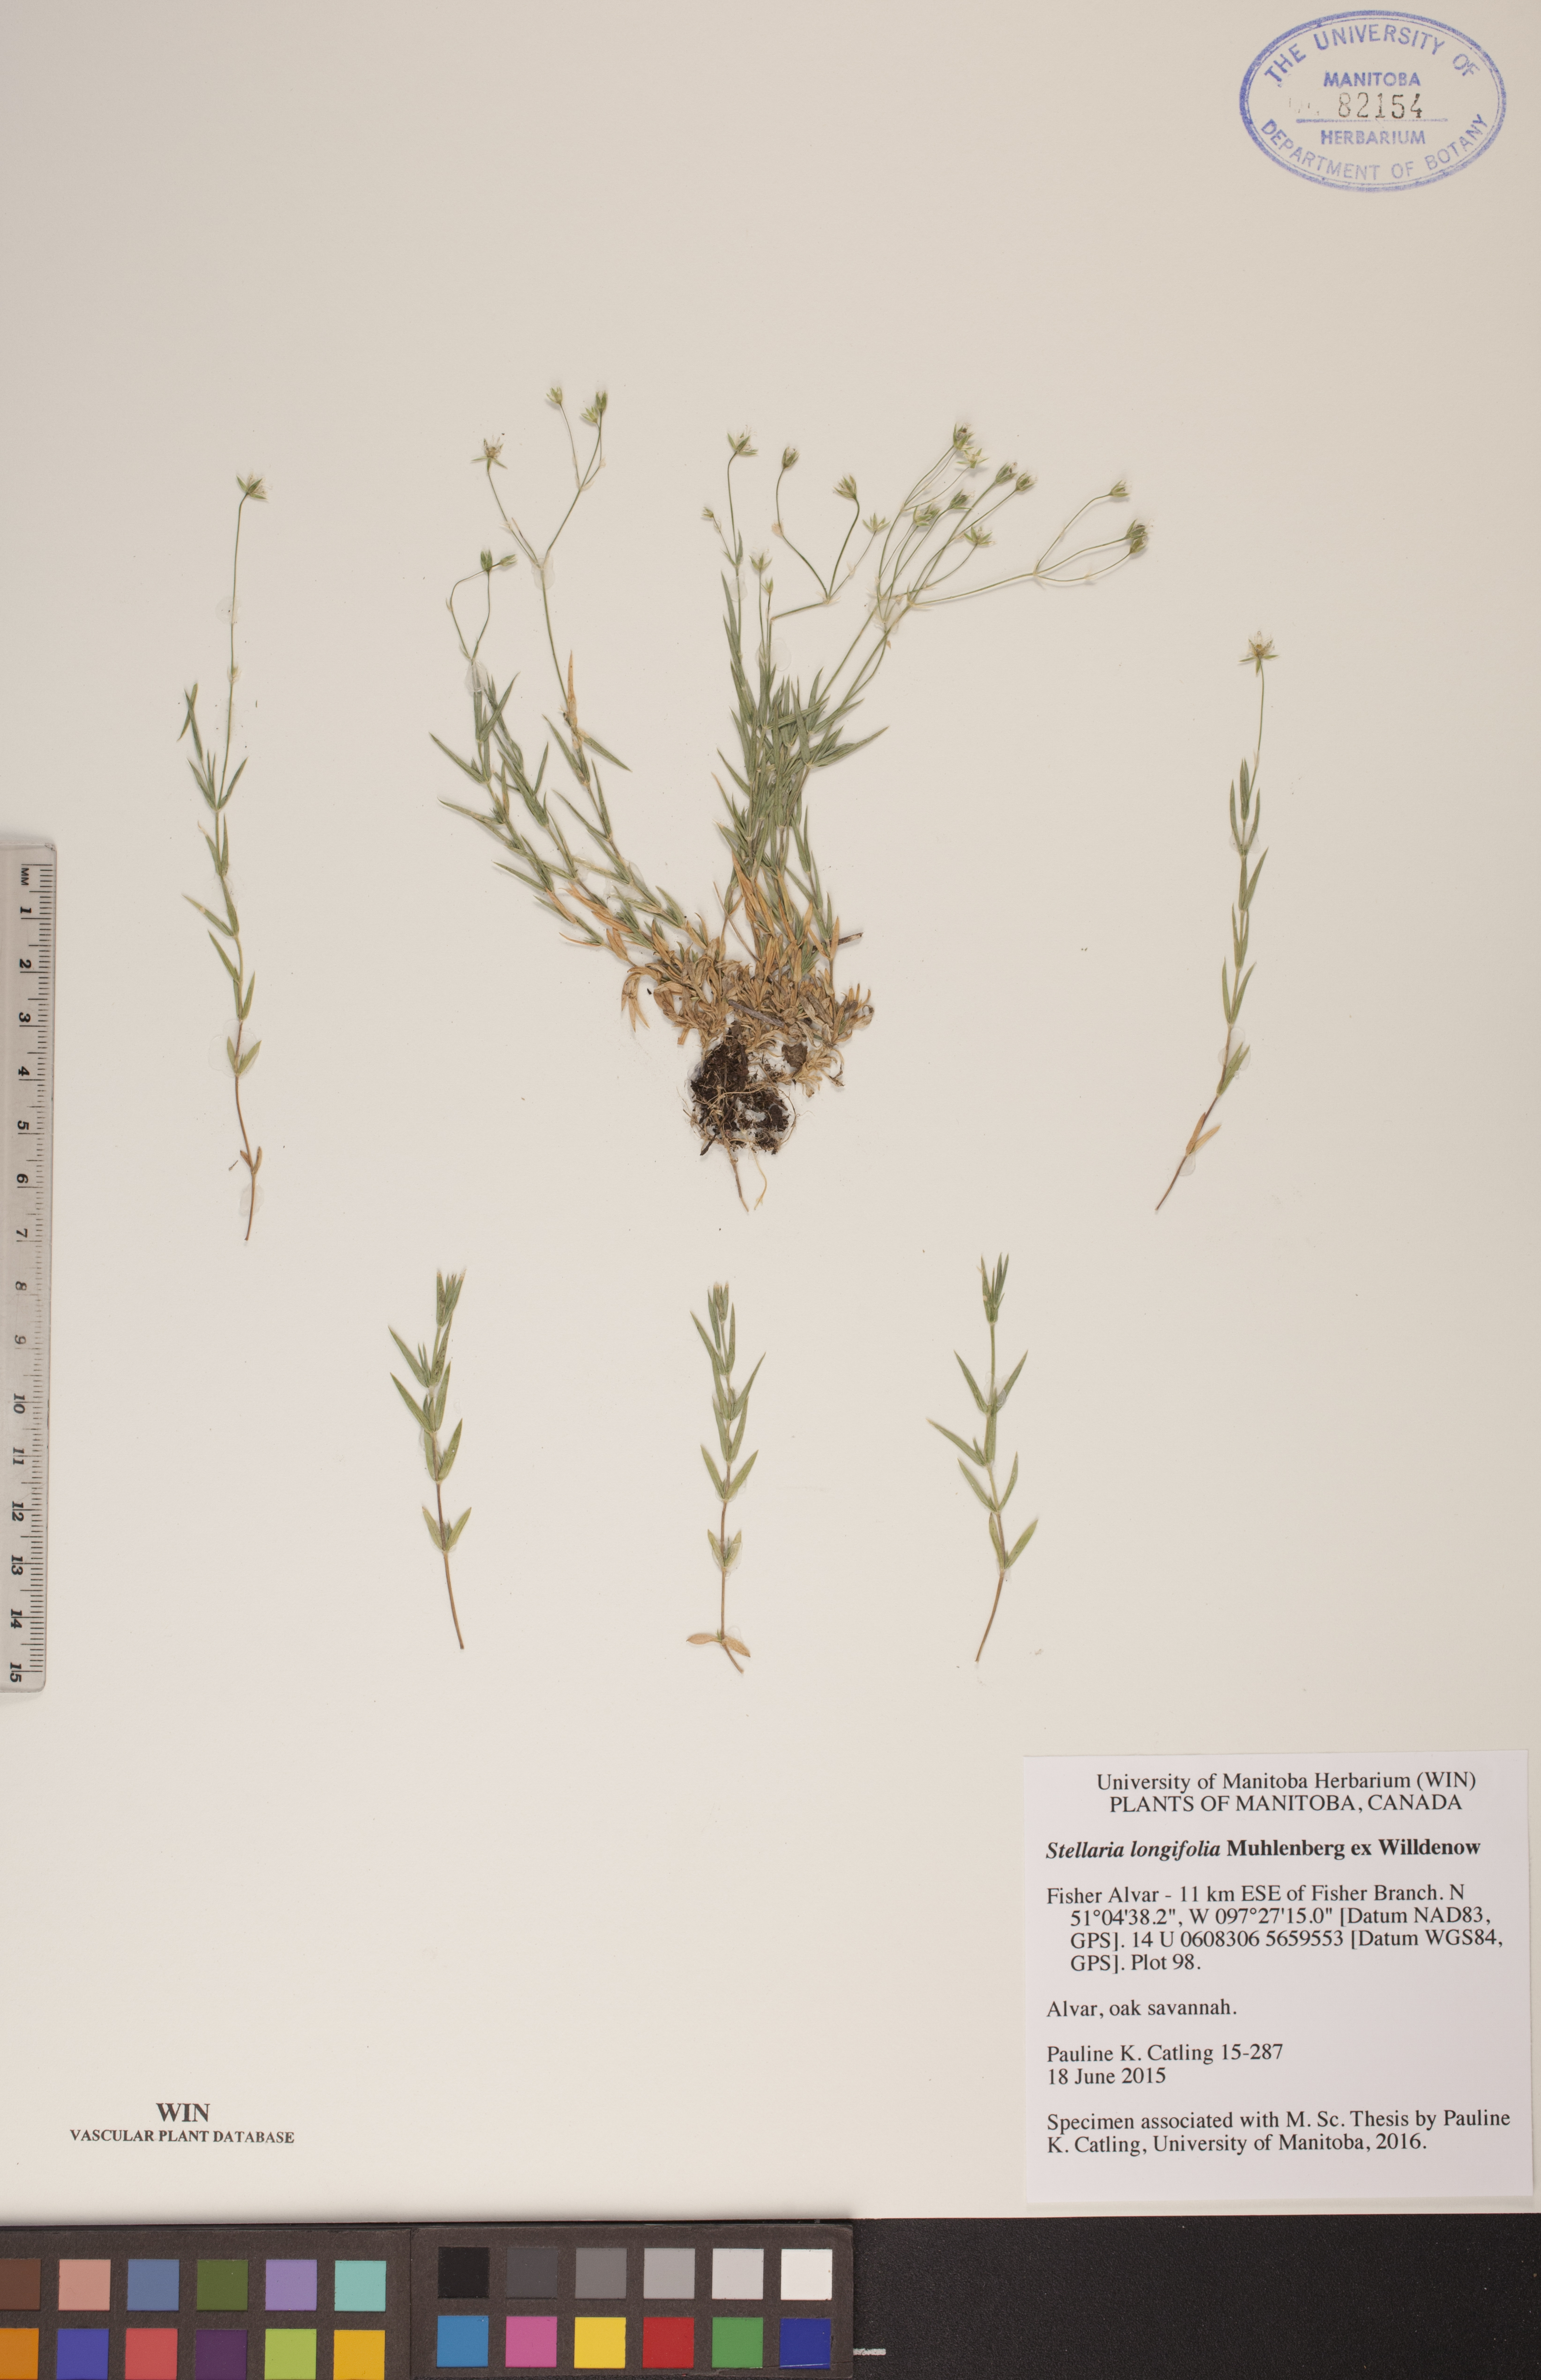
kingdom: Plantae
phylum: Tracheophyta
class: Magnoliopsida
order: Caryophyllales
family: Caryophyllaceae
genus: Stellaria
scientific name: Stellaria longifolia
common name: Long-leaved chickweed
